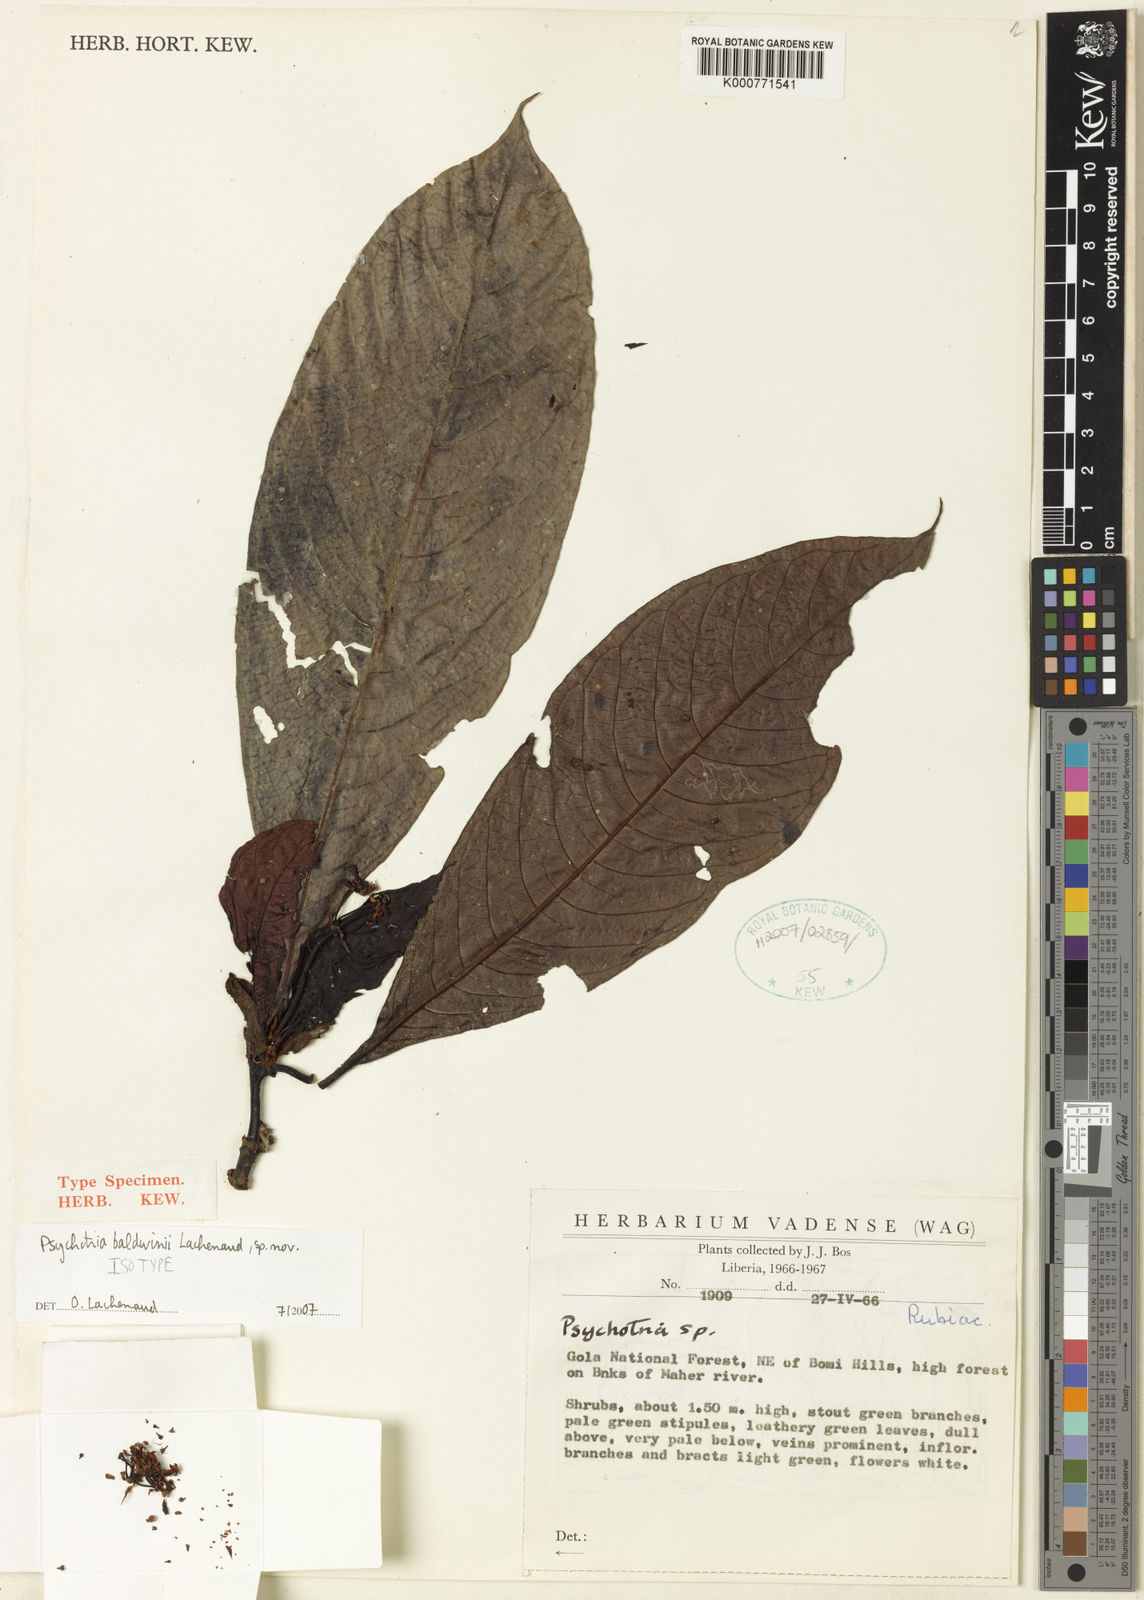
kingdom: Plantae
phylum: Tracheophyta
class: Magnoliopsida
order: Gentianales
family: Rubiaceae
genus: Psychotria
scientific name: Psychotria baldwinii
